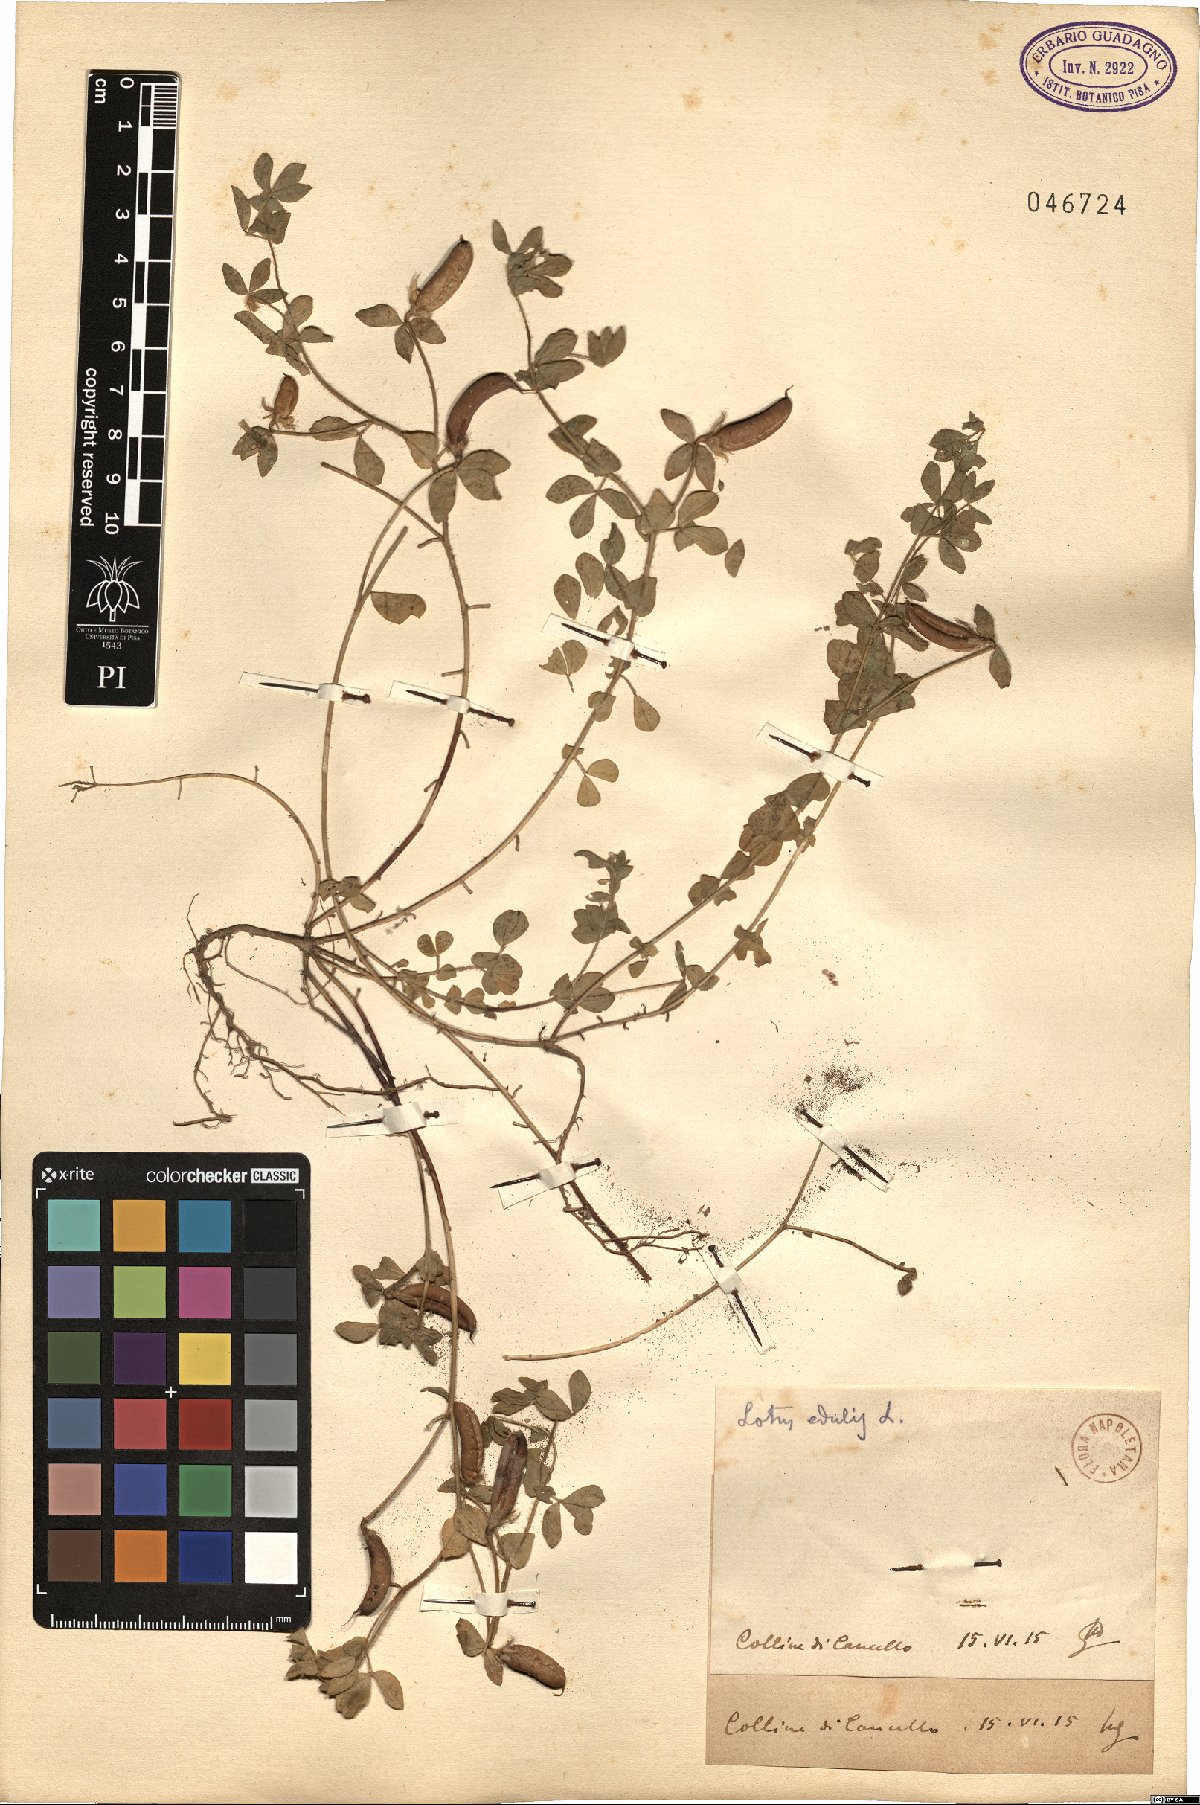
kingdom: Plantae
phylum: Tracheophyta
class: Magnoliopsida
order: Fabales
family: Fabaceae
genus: Lotus
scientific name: Lotus edulis
